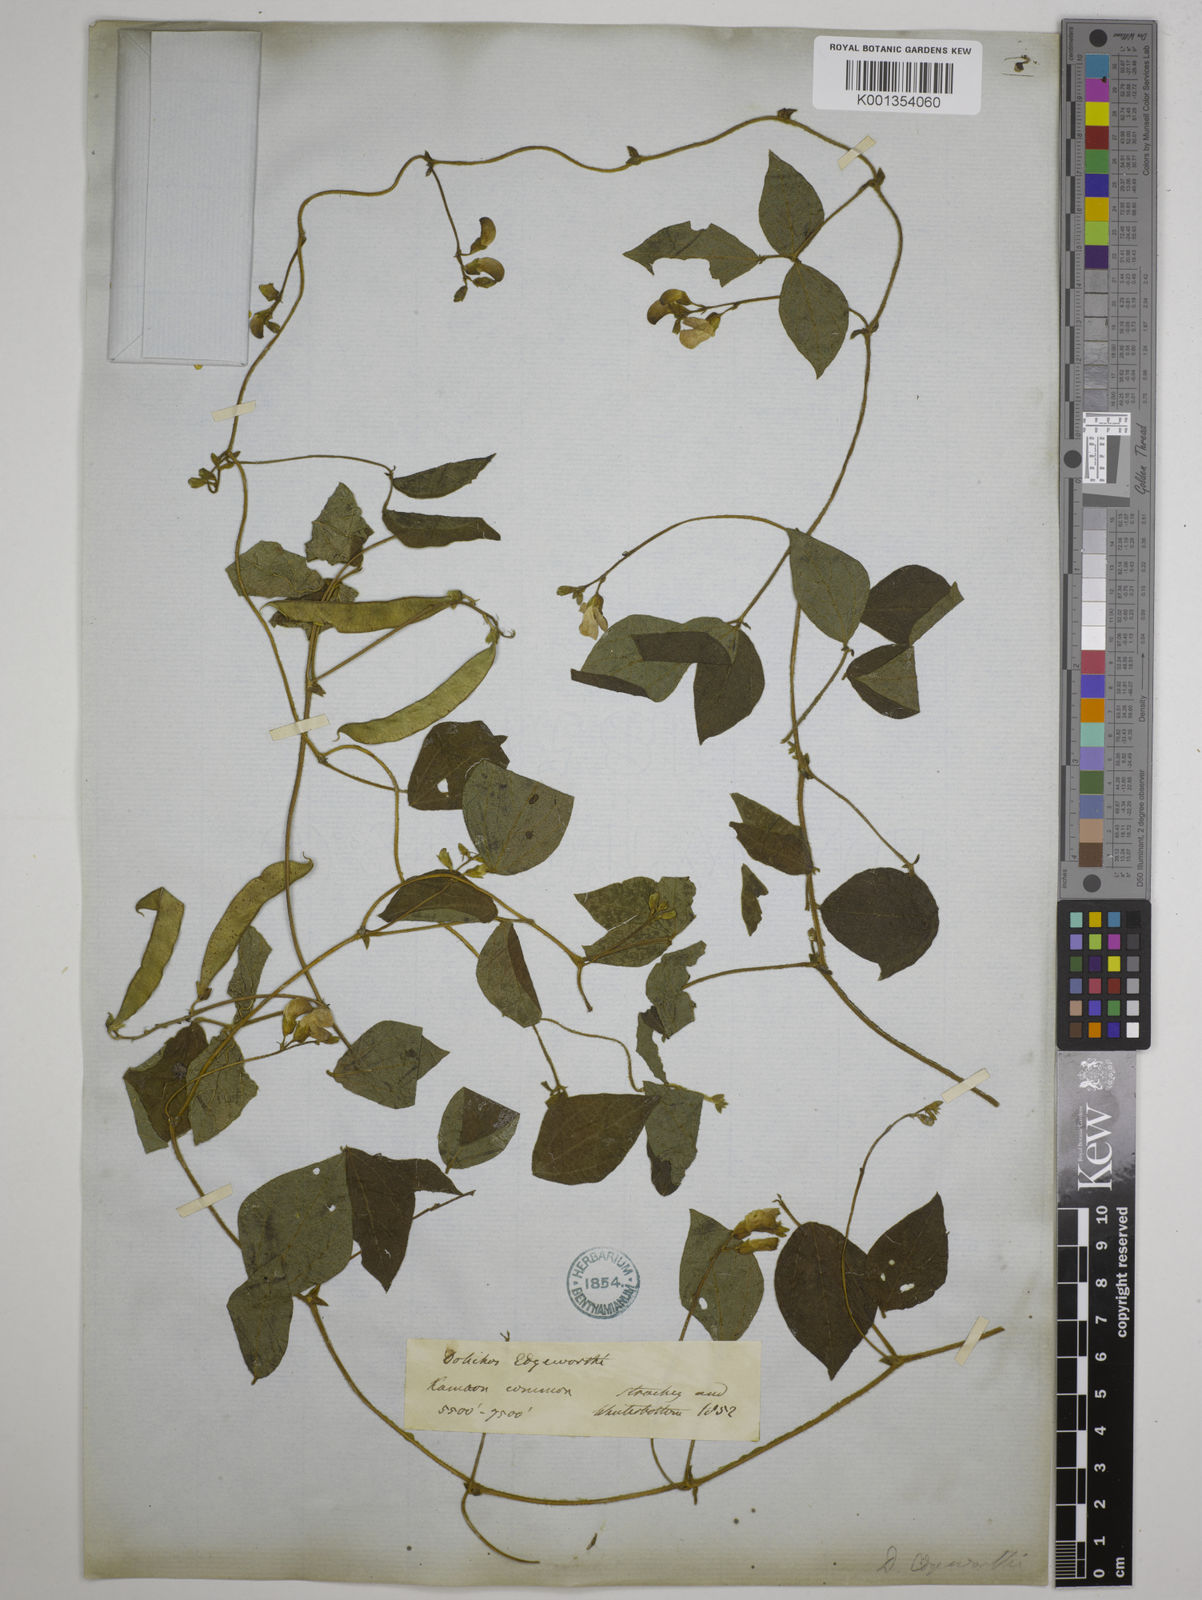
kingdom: Plantae
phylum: Tracheophyta
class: Magnoliopsida
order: Fabales
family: Fabaceae
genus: Dolichos
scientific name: Dolichos
